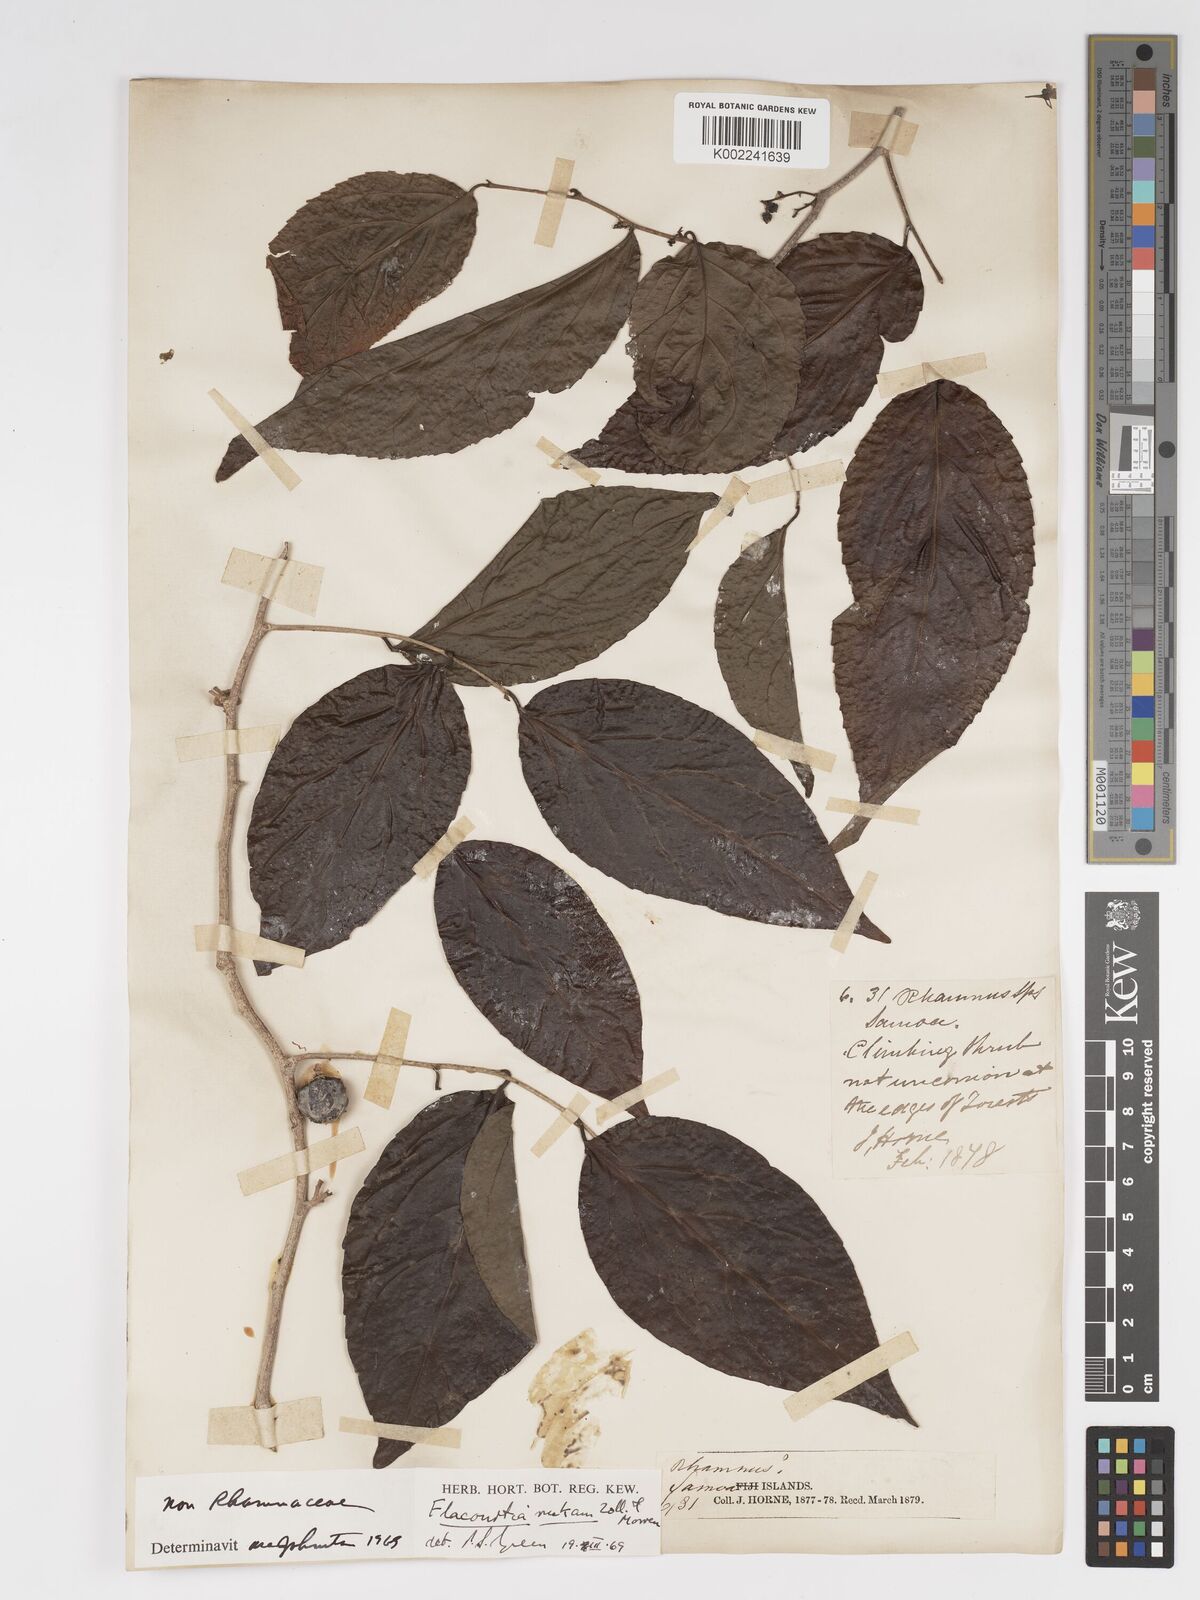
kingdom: Plantae
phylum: Tracheophyta
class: Magnoliopsida
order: Malpighiales
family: Salicaceae
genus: Flacourtia
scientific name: Flacourtia rukam
